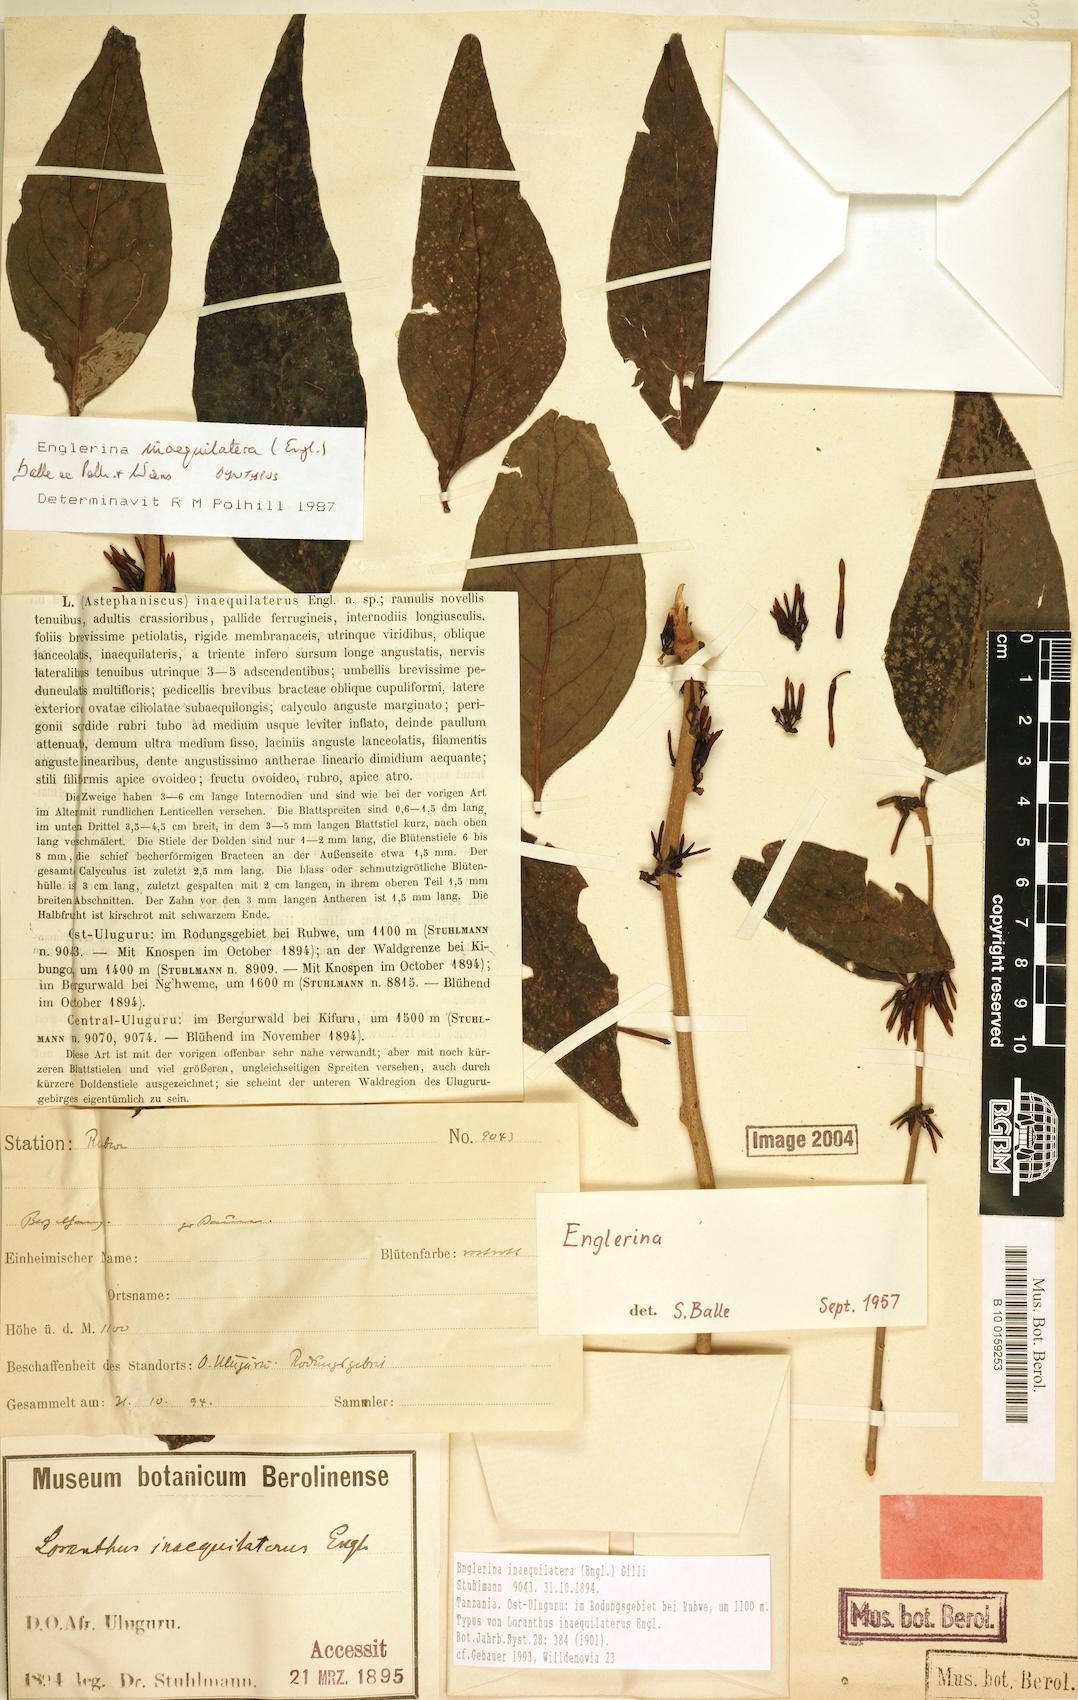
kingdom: Plantae
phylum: Tracheophyta
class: Magnoliopsida
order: Santalales
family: Loranthaceae
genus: Englerina
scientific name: Englerina inaequilatera
